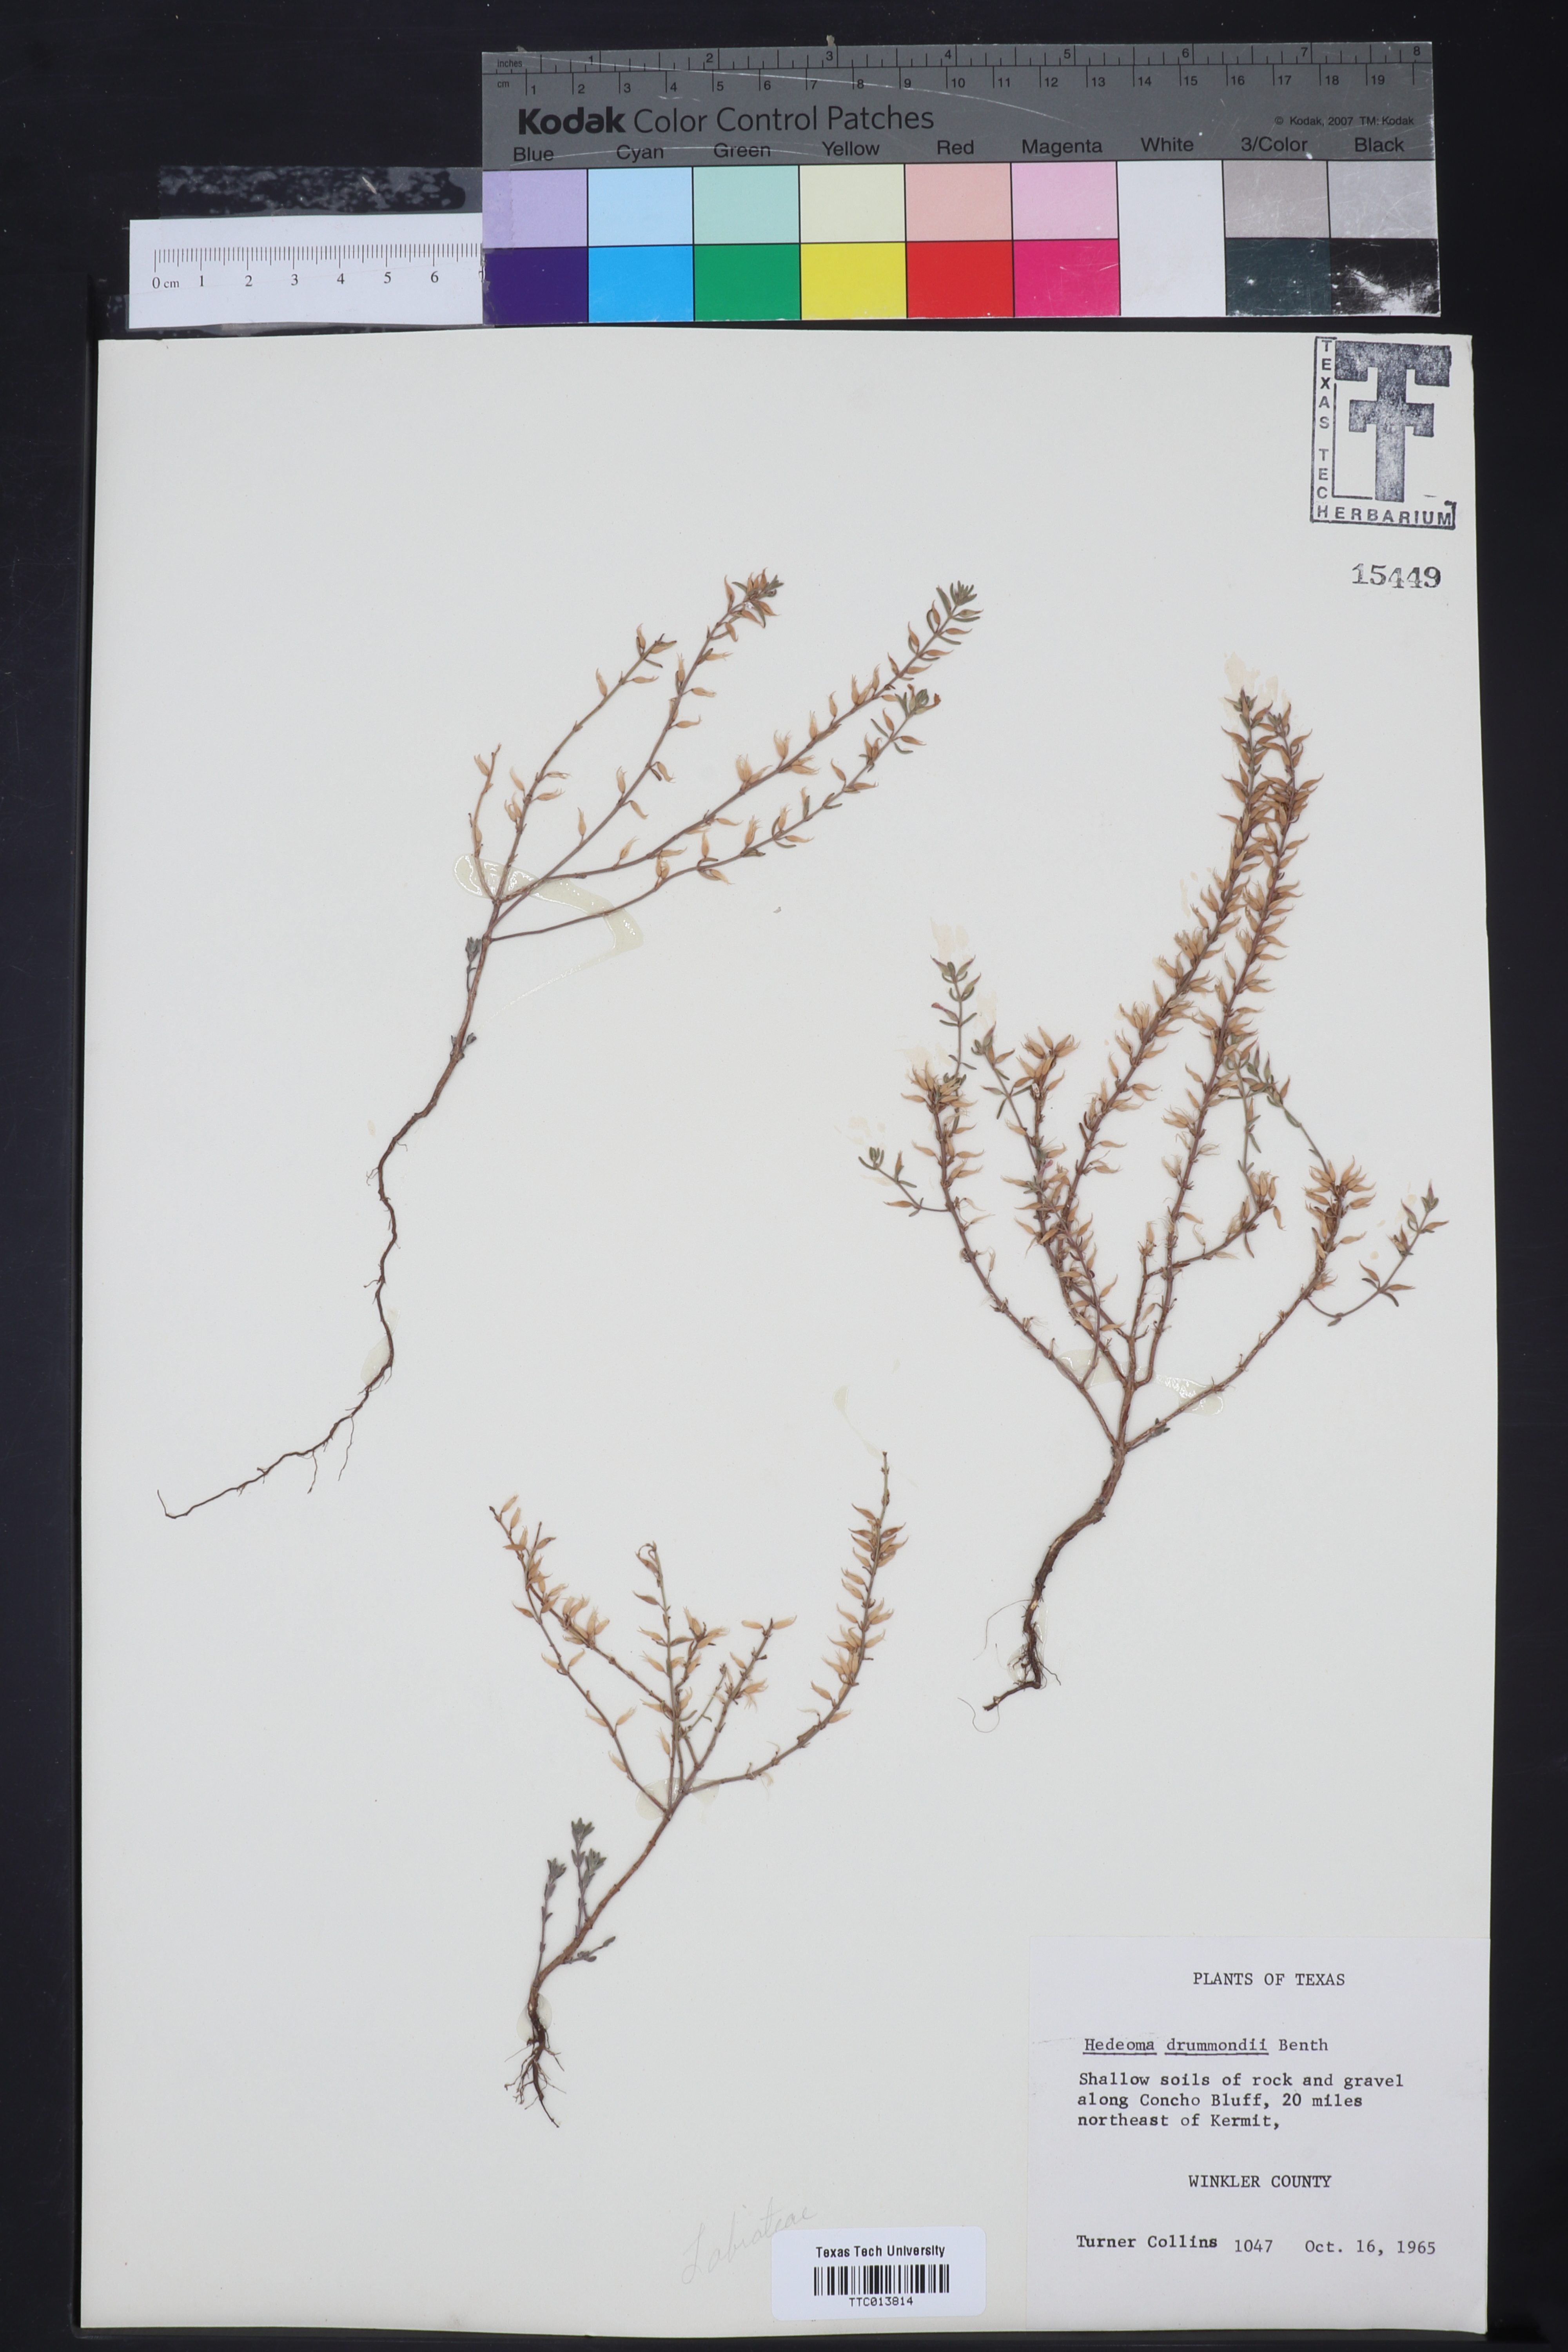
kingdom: Plantae
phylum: Tracheophyta
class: Magnoliopsida
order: Lamiales
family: Lamiaceae
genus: Hedeoma
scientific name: Hedeoma drummondii
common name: New mexico pennyroyal
